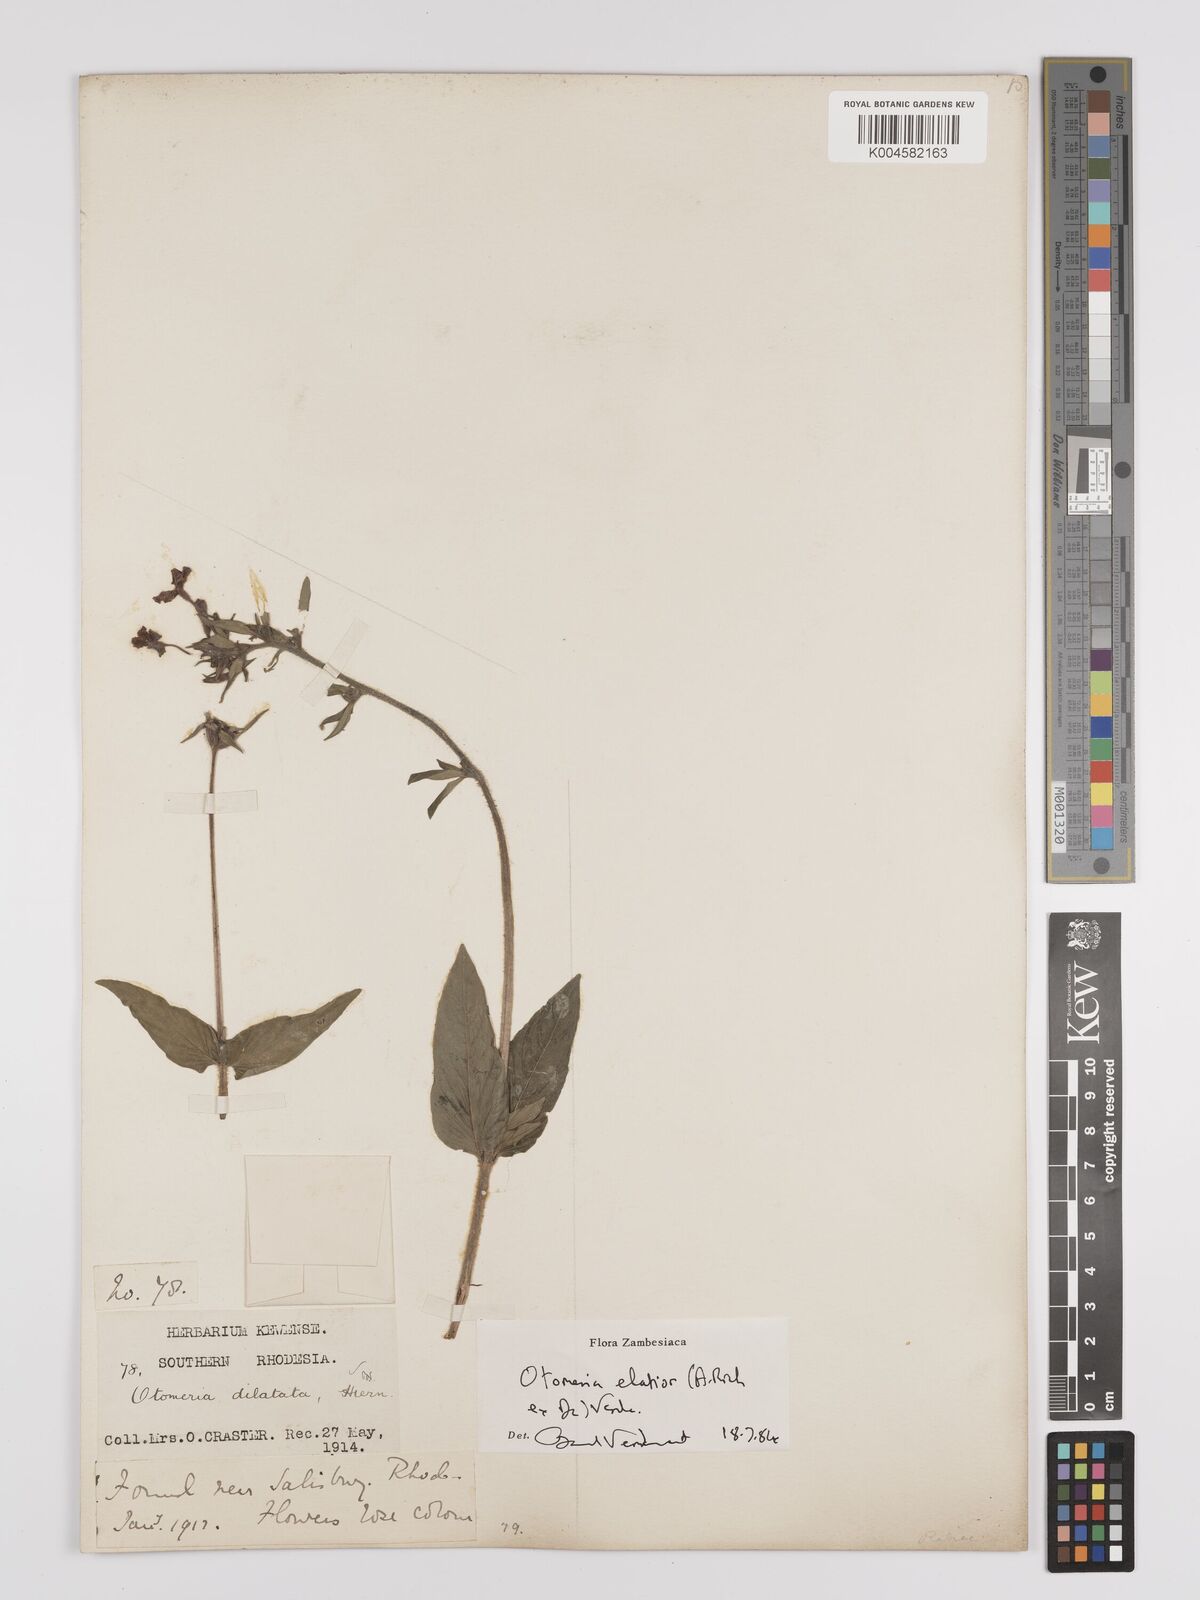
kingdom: Plantae
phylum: Tracheophyta
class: Magnoliopsida
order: Gentianales
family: Rubiaceae
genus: Otomeria
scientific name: Otomeria elatior
